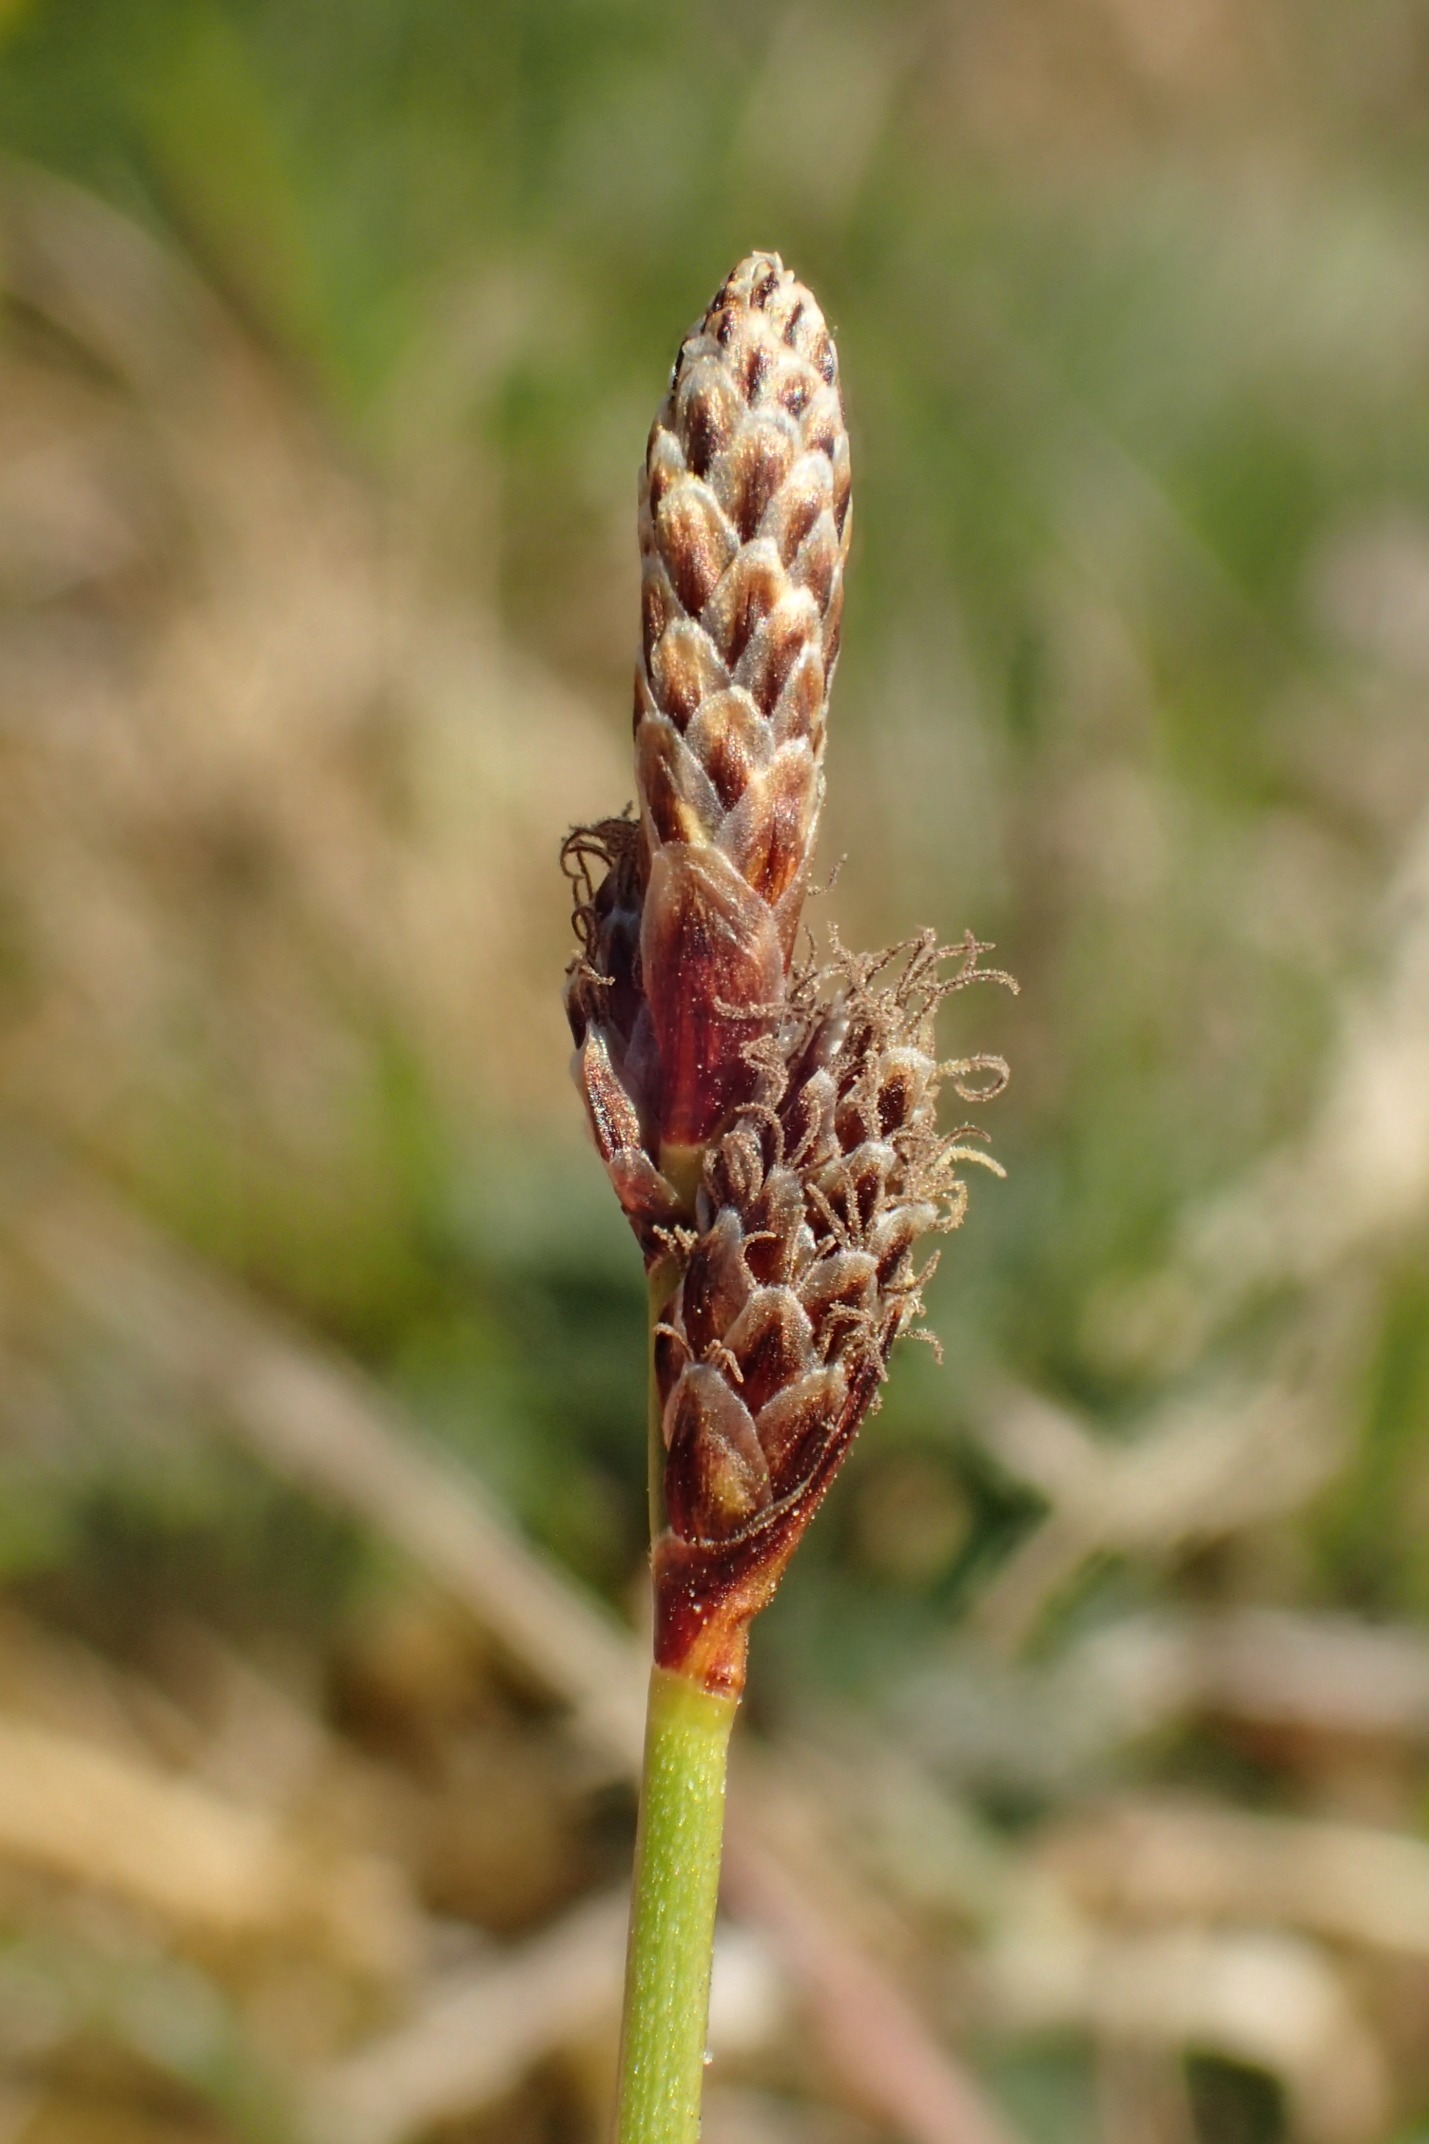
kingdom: Plantae
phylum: Tracheophyta
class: Liliopsida
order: Poales
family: Cyperaceae
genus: Carex
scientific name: Carex ericetorum
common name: Lyng-star
